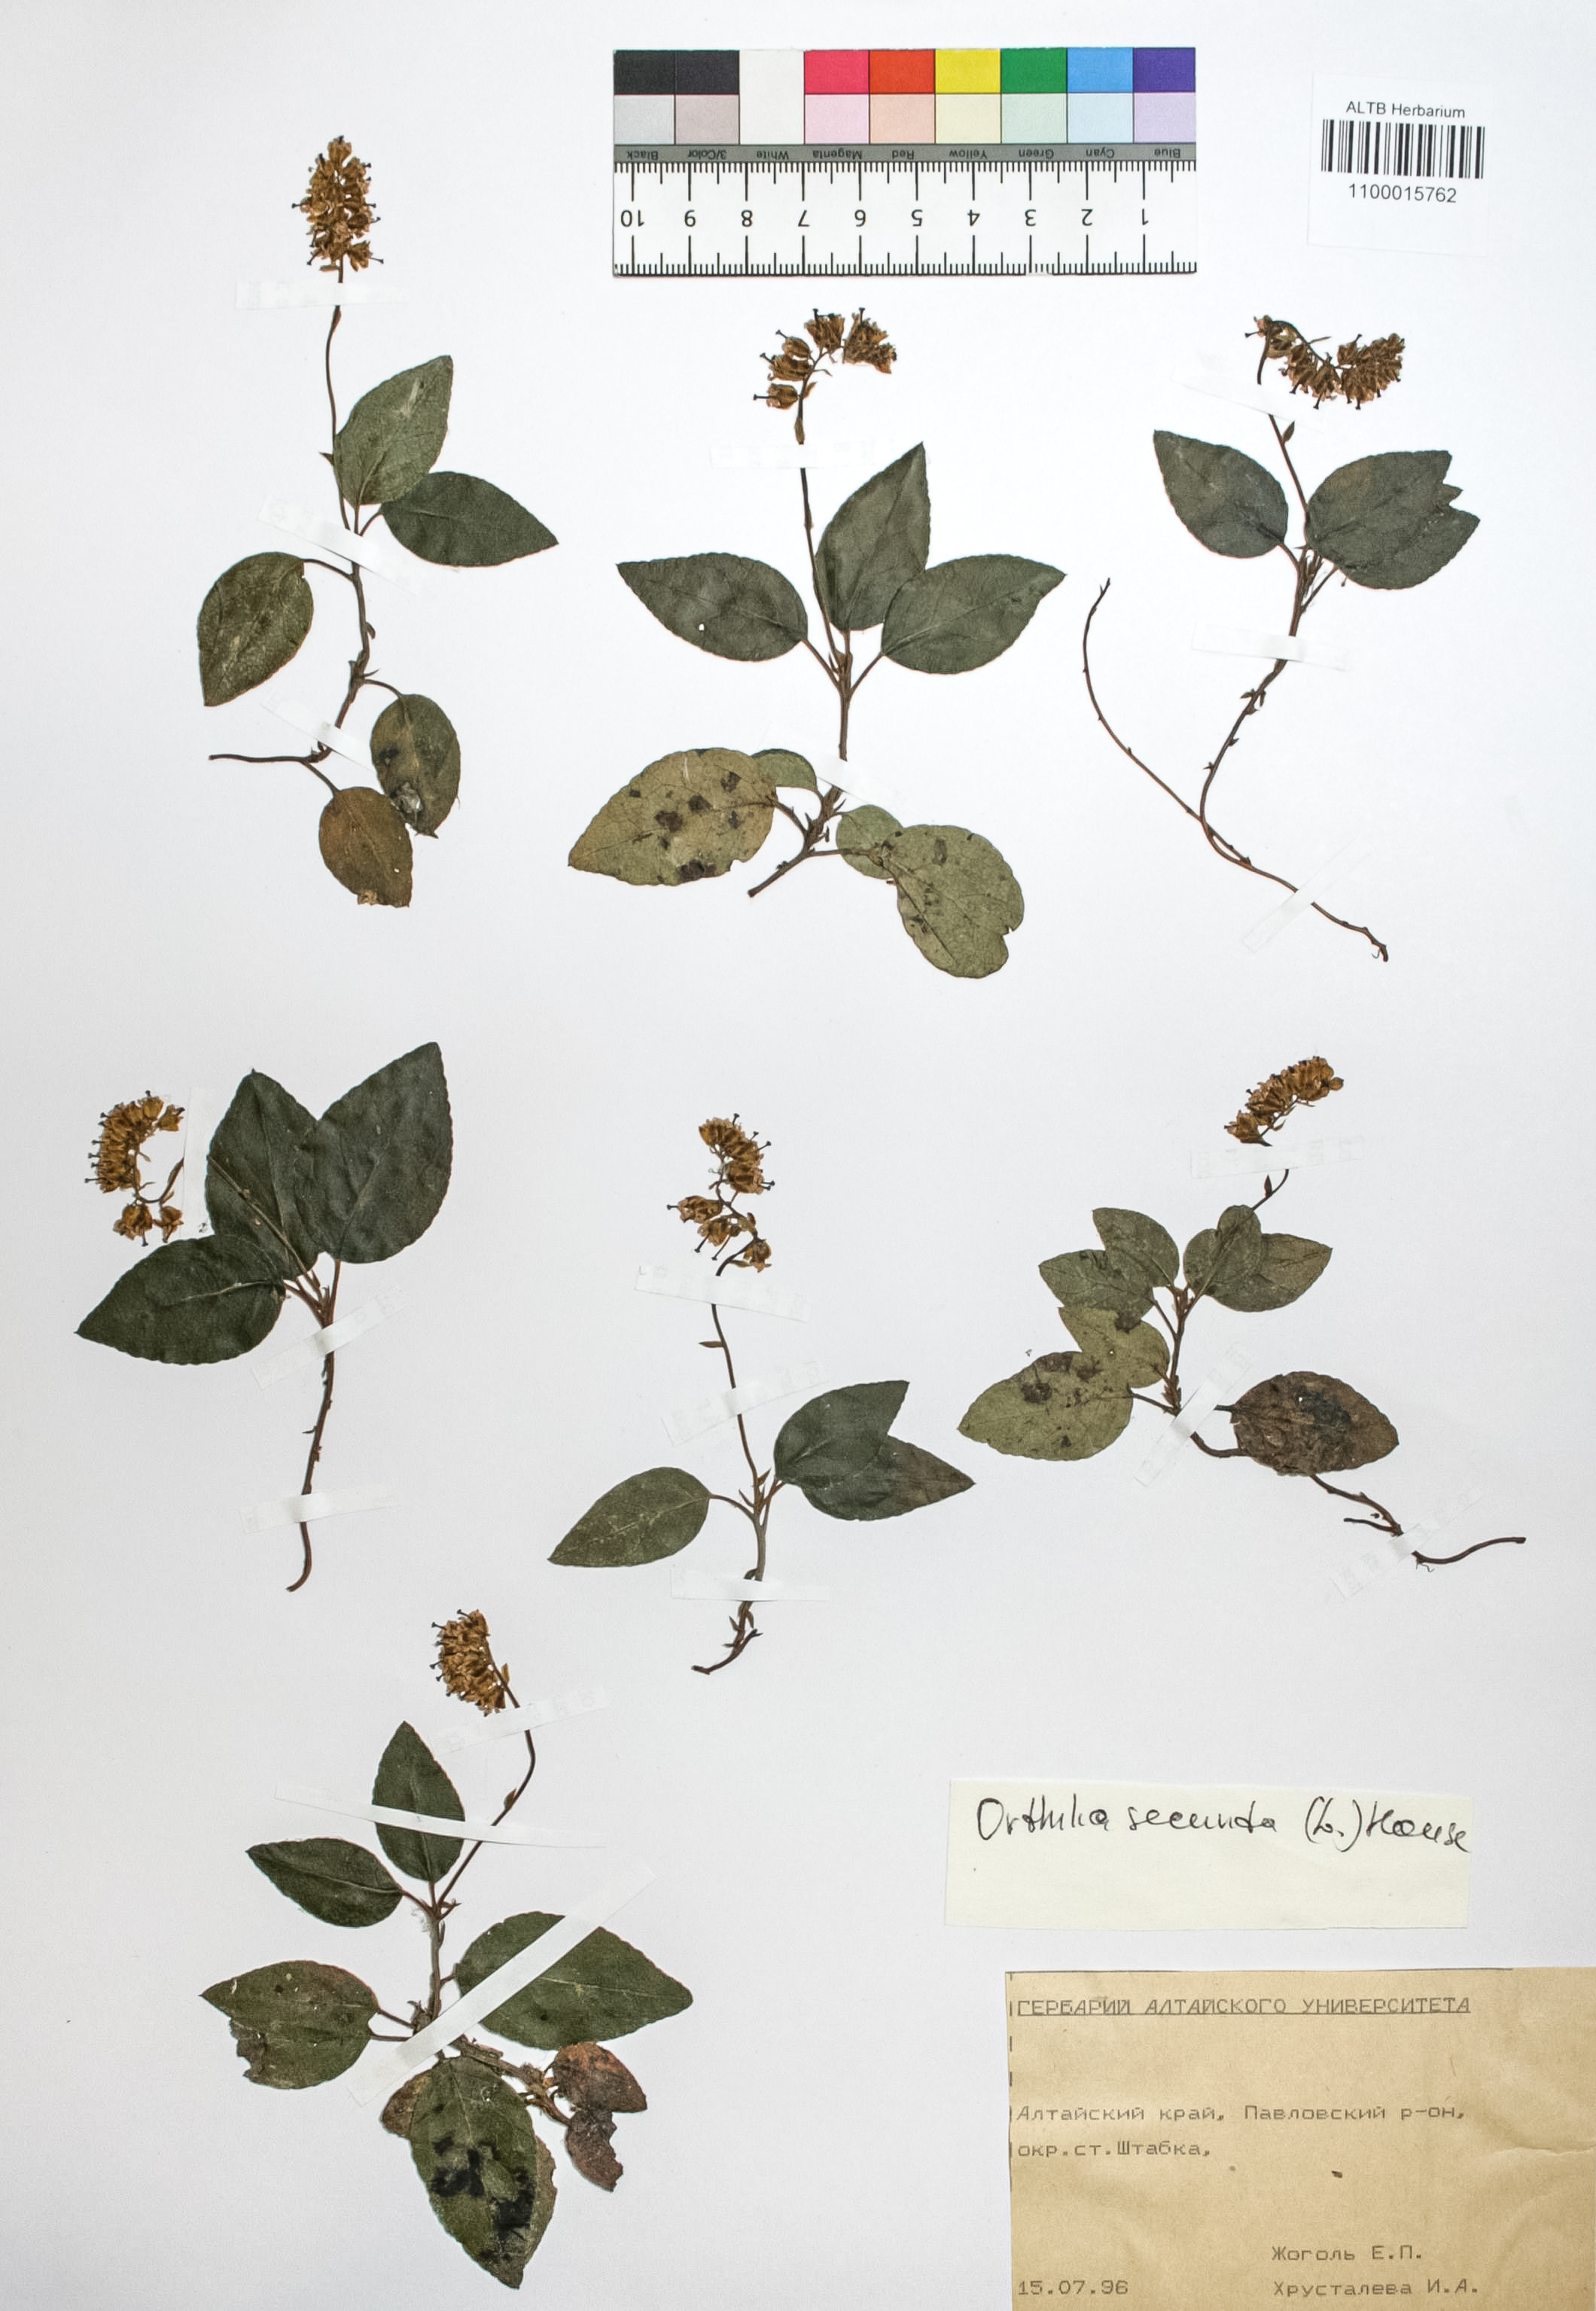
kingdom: Plantae
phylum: Tracheophyta
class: Magnoliopsida
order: Ericales
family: Ericaceae
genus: Orthilia
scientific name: Orthilia secunda
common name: One-sided orthilia
